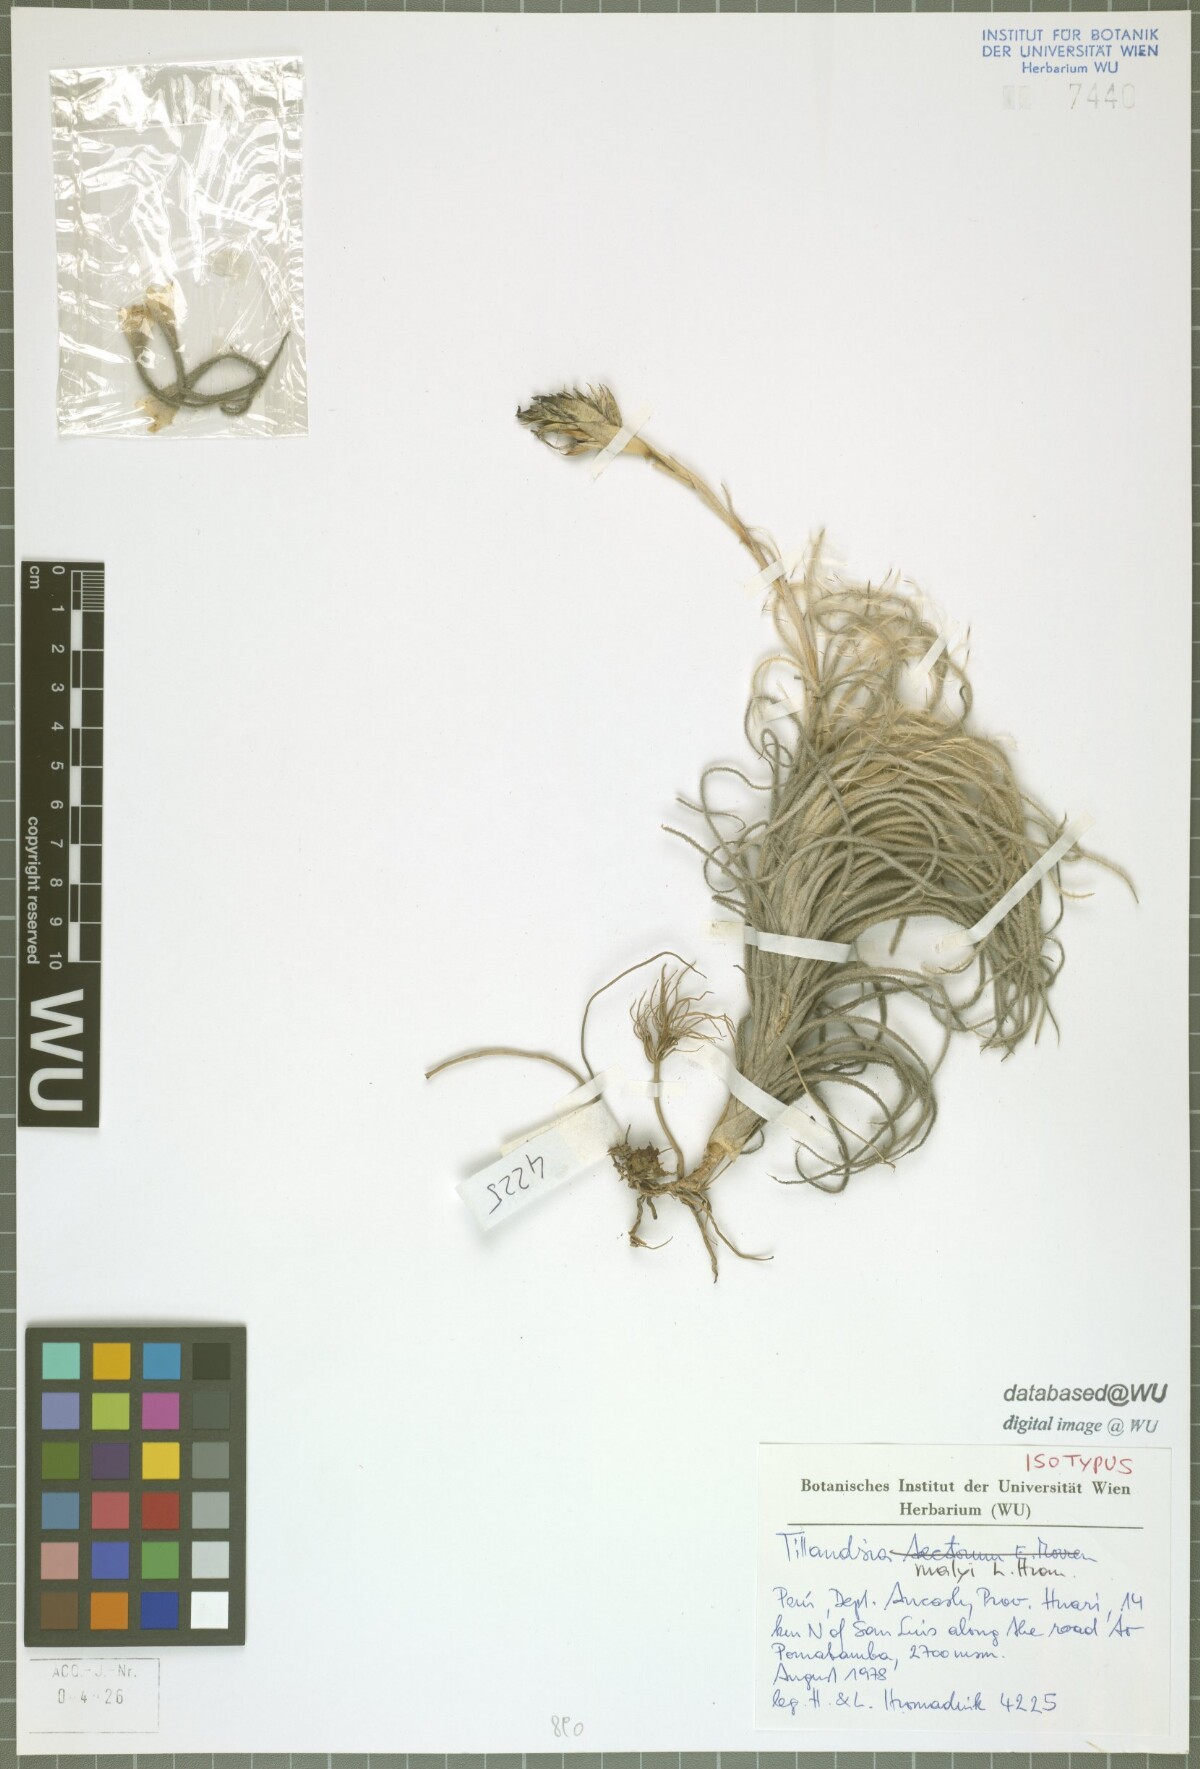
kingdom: Plantae
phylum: Tracheophyta
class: Liliopsida
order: Poales
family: Bromeliaceae
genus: Tillandsia
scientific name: Tillandsia malyi
